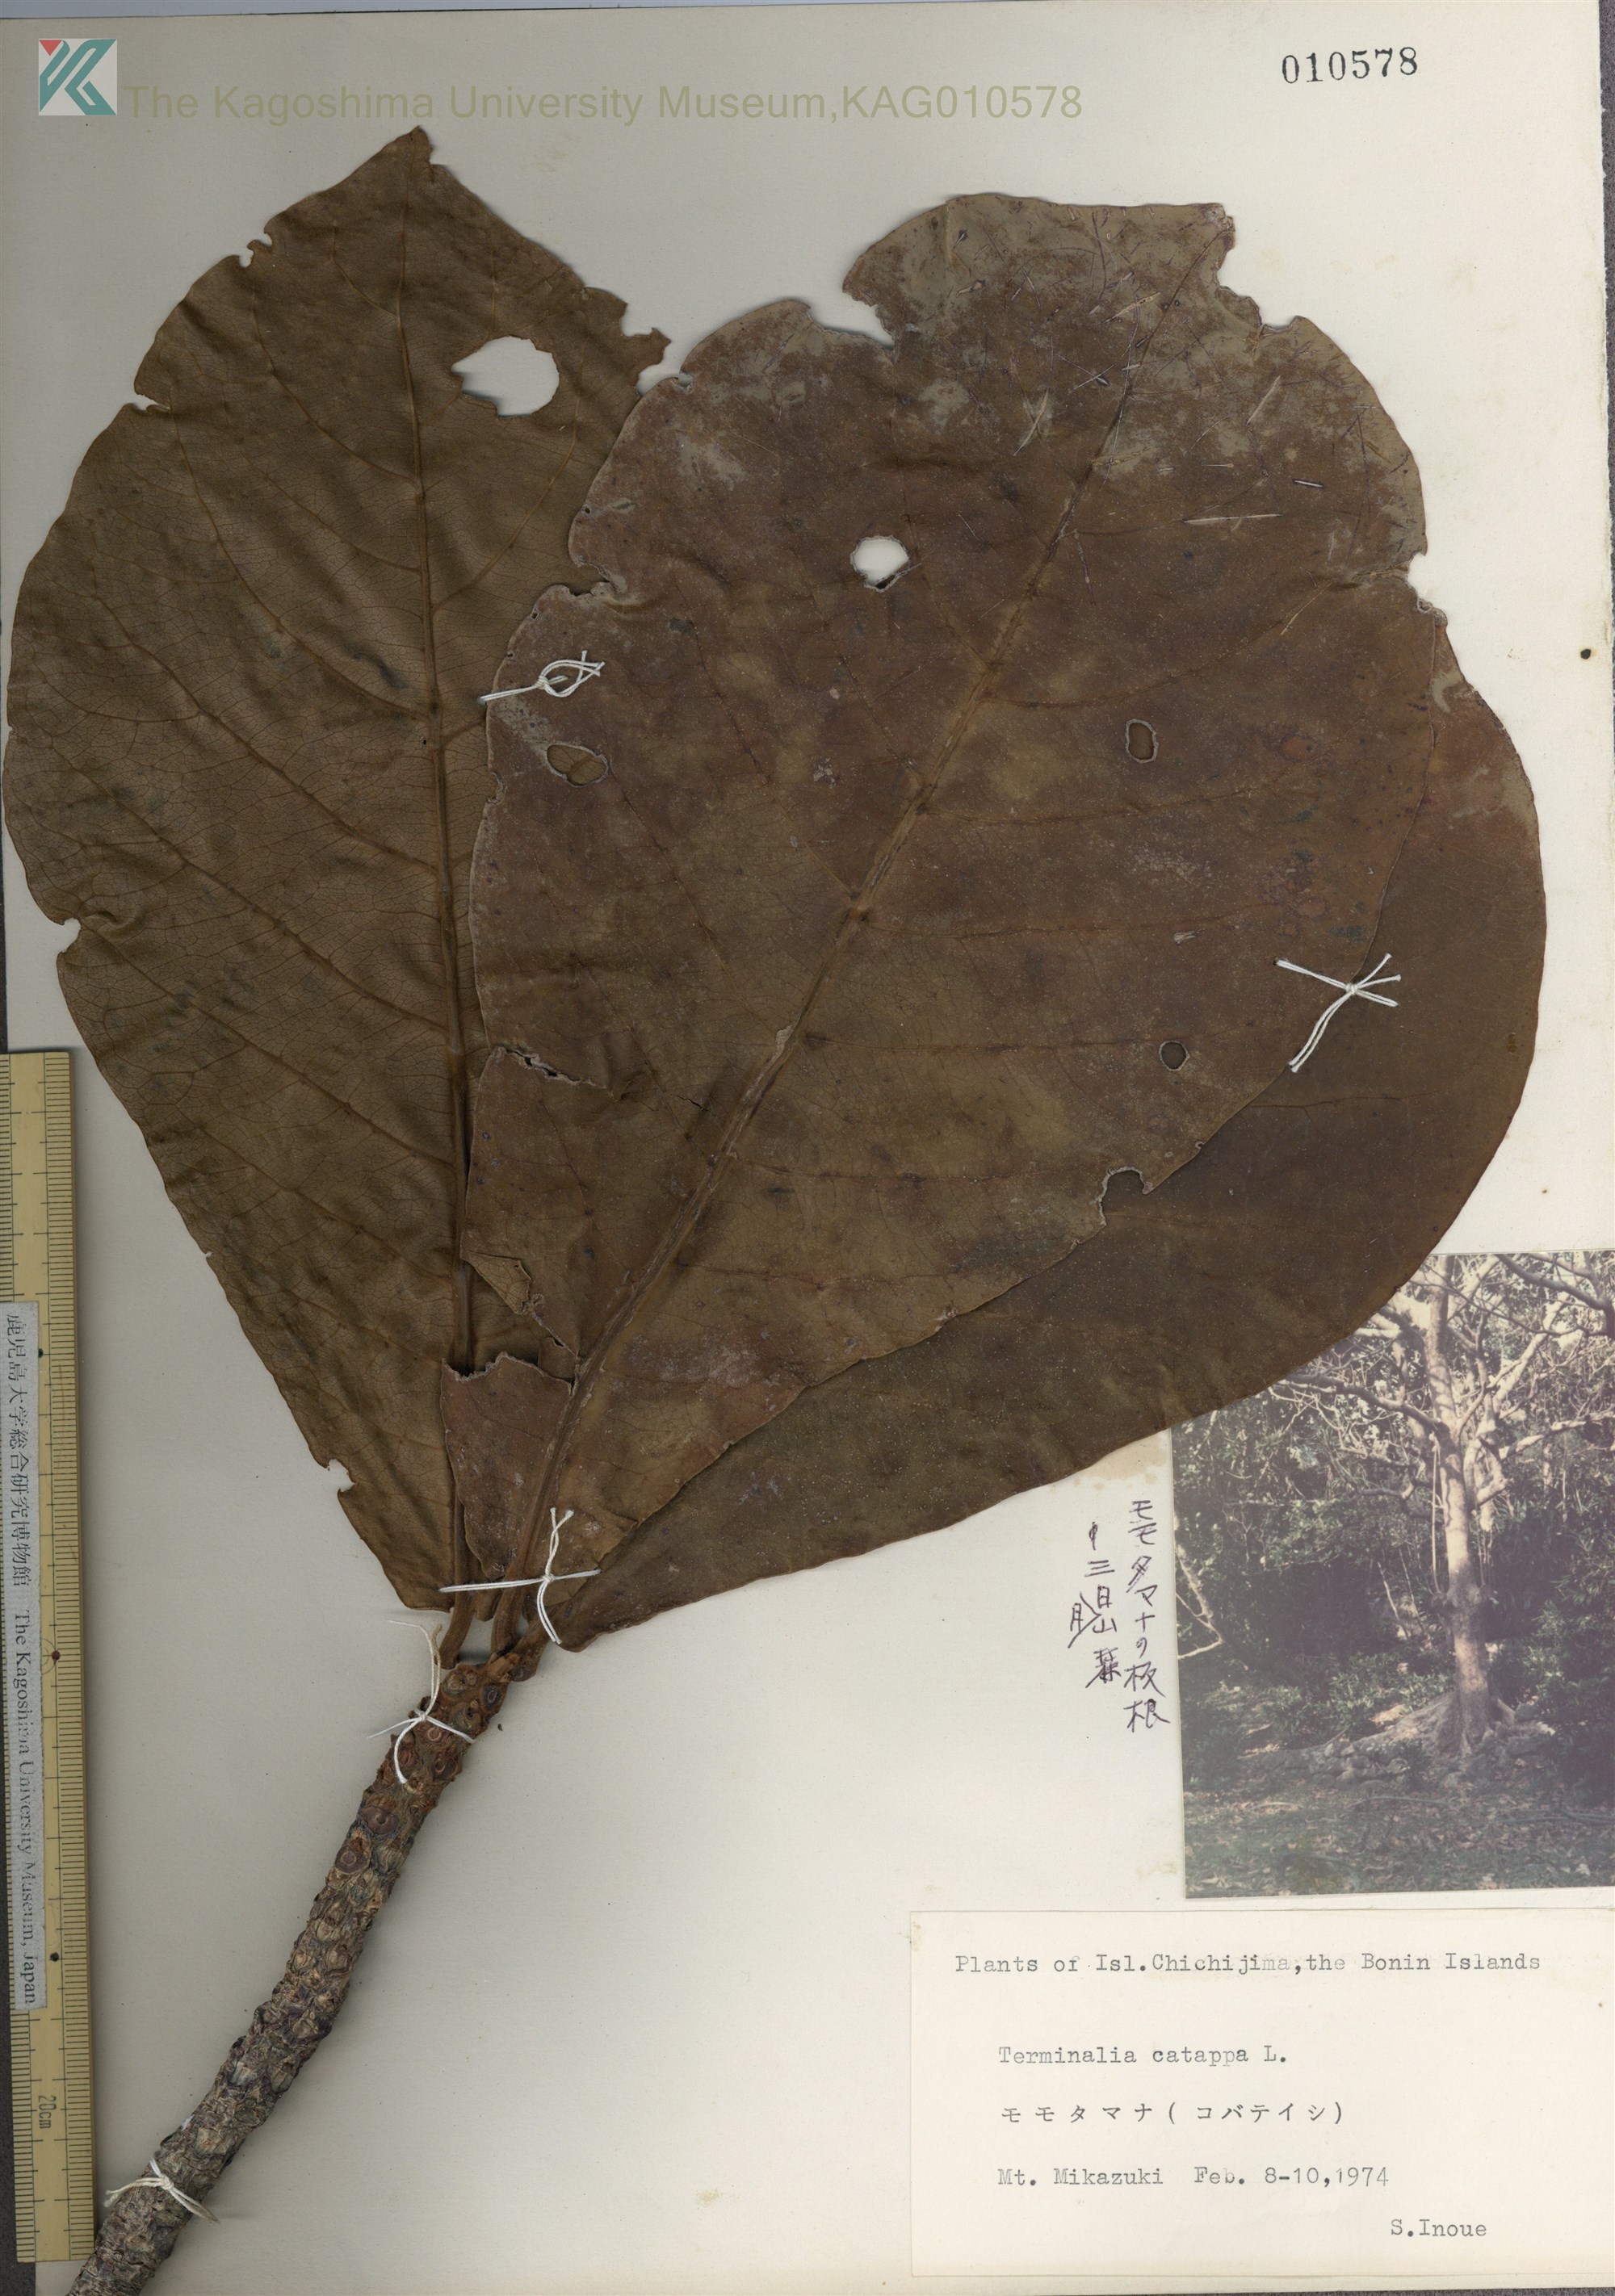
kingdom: Plantae
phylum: Tracheophyta
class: Magnoliopsida
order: Myrtales
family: Combretaceae
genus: Terminalia
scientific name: Terminalia catappa
